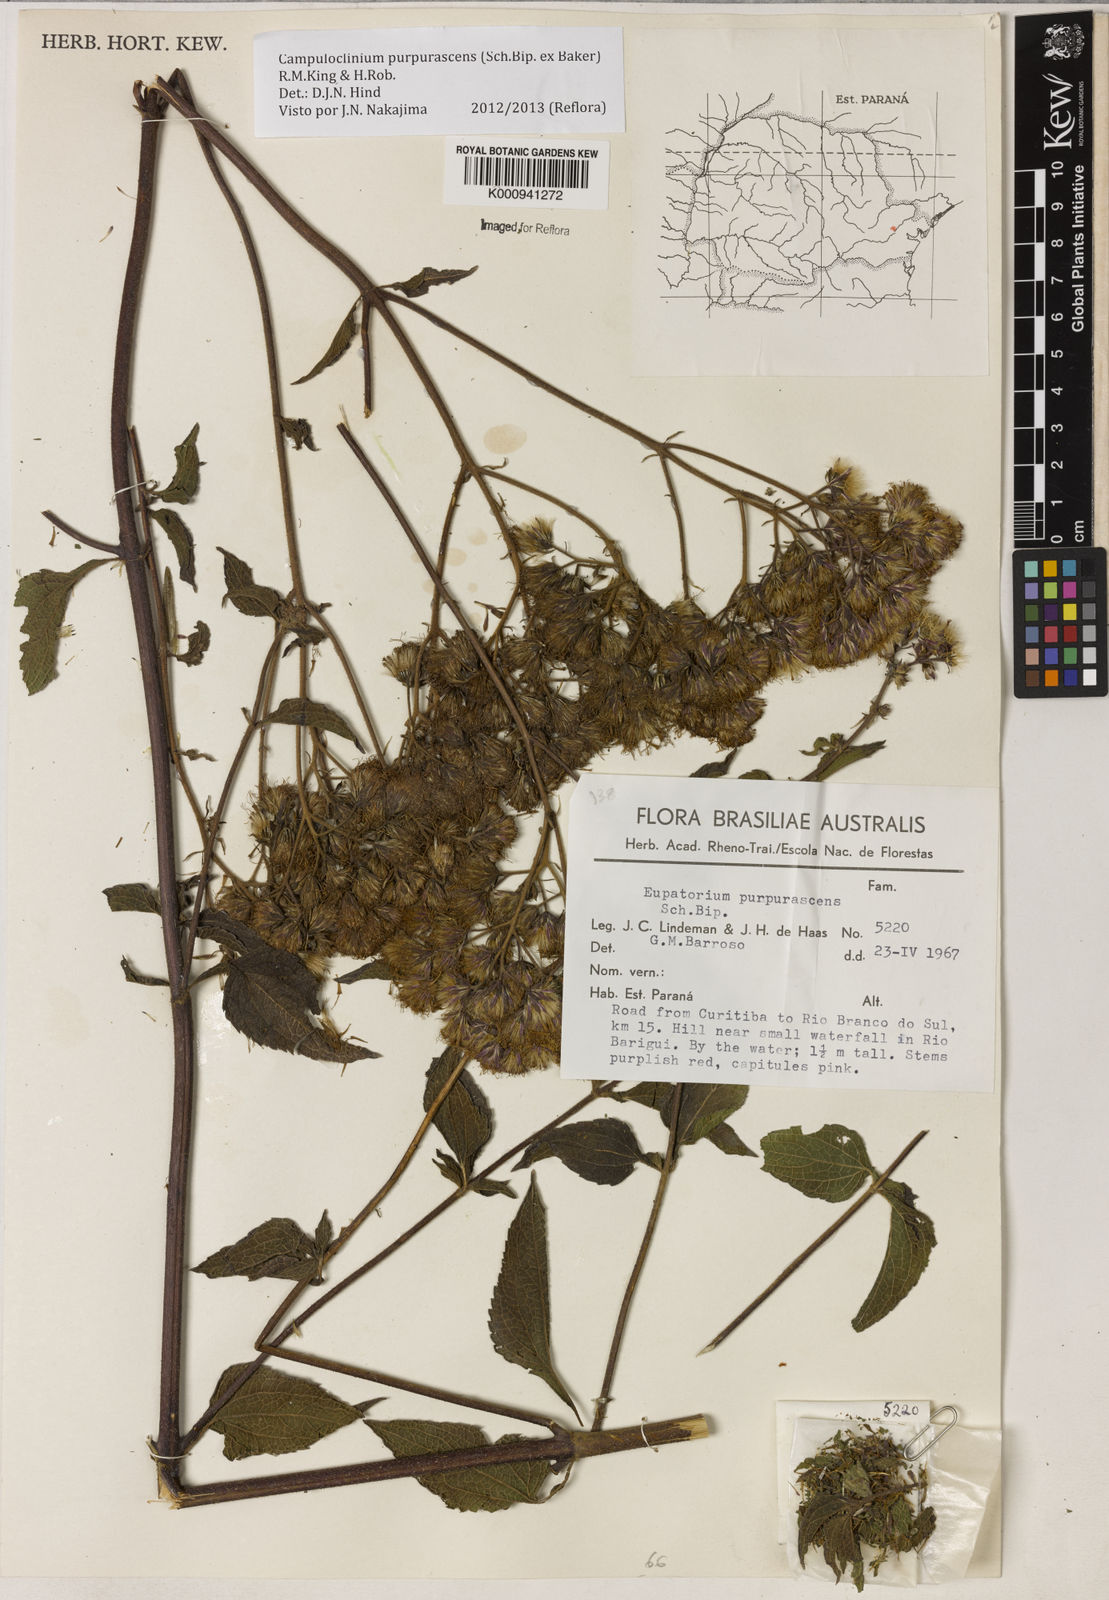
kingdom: Plantae
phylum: Tracheophyta
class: Magnoliopsida
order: Asterales
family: Asteraceae
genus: Campuloclinium
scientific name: Campuloclinium purpurascens
